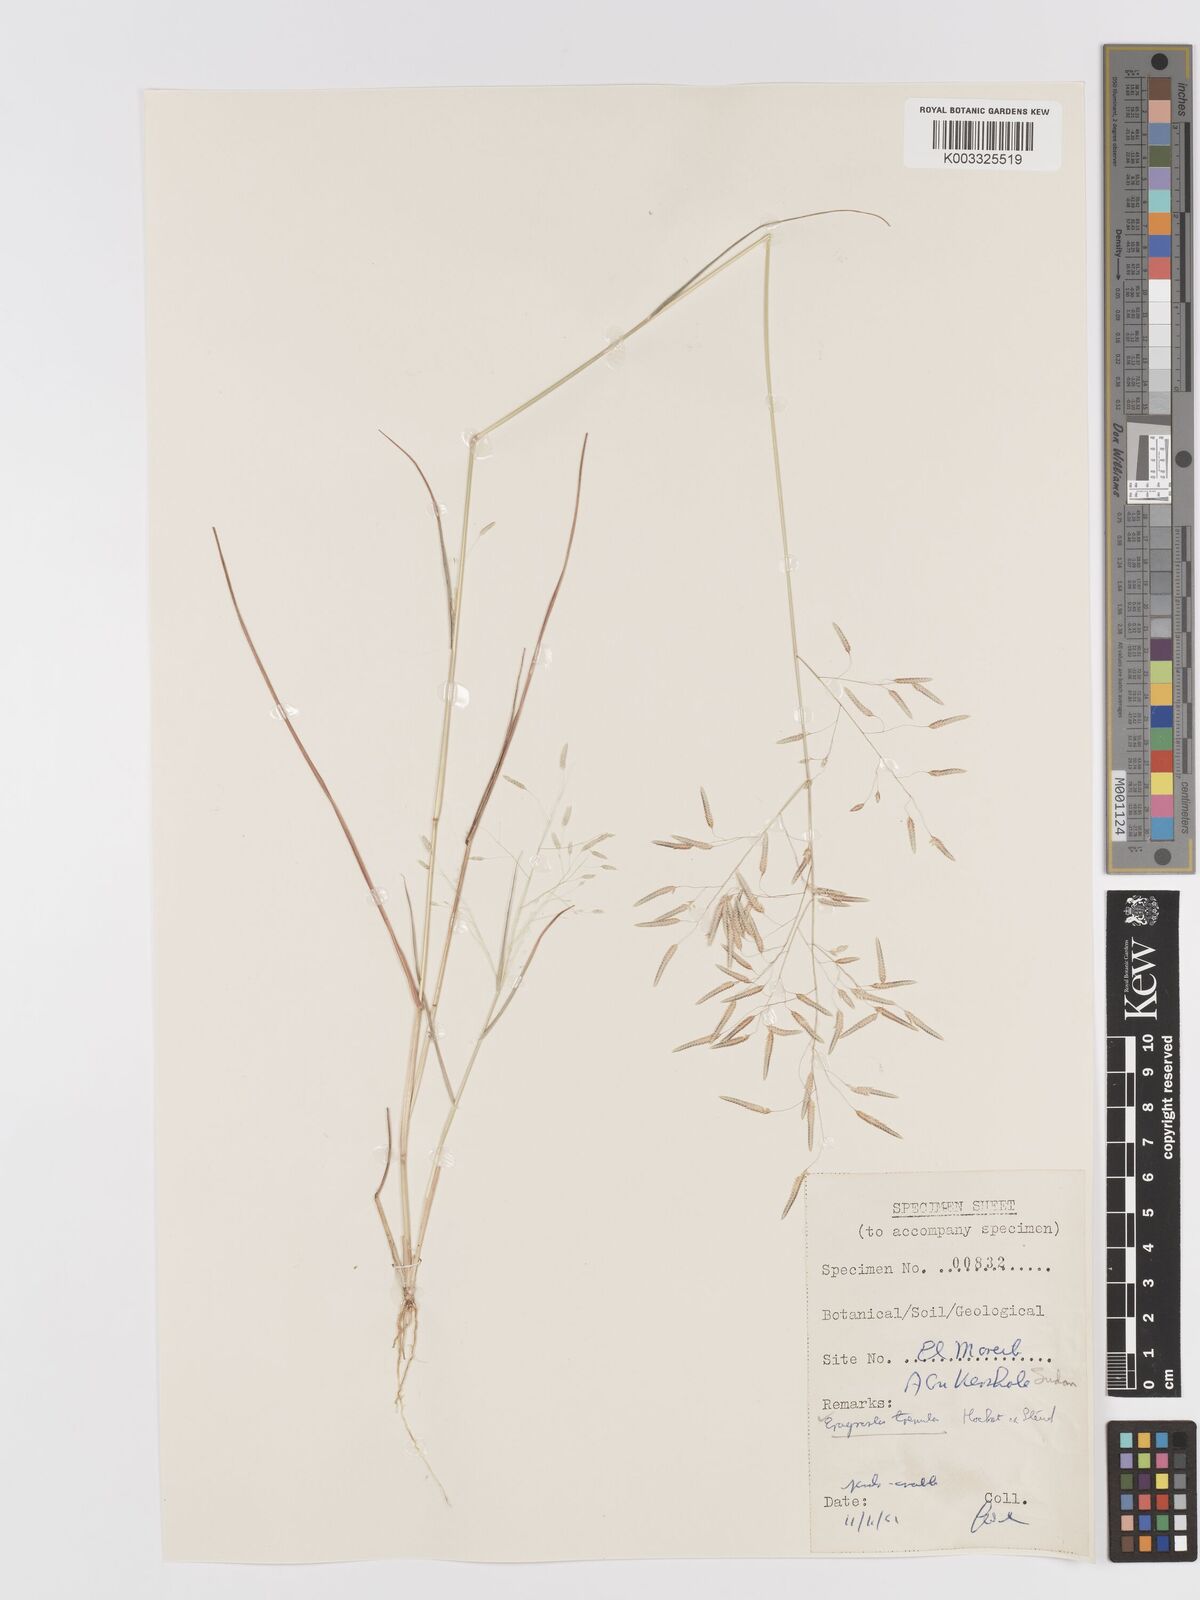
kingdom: Plantae
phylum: Tracheophyta
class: Liliopsida
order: Poales
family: Poaceae
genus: Eragrostis
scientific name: Eragrostis tremula
